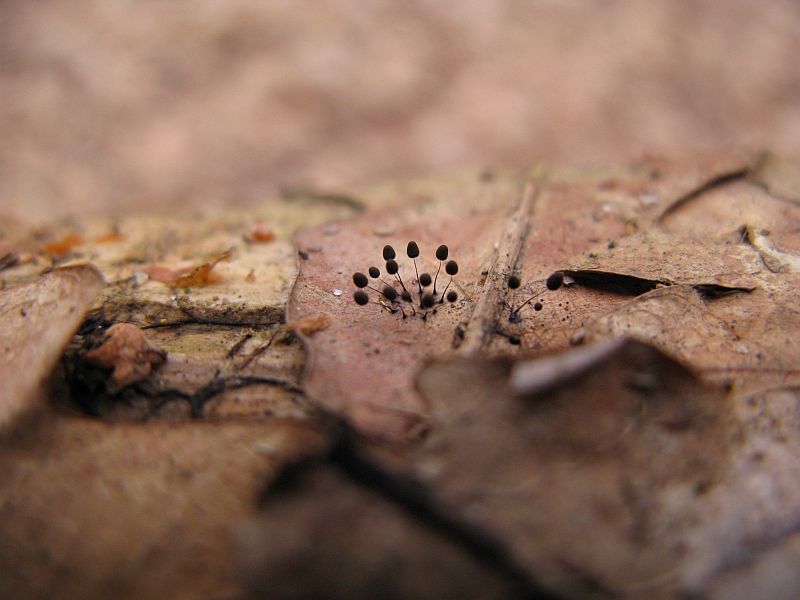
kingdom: Protozoa
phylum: Mycetozoa
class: Myxomycetes
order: Stemonitidales
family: Stemonitidaceae
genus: Comatricha
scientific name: Comatricha nigra
